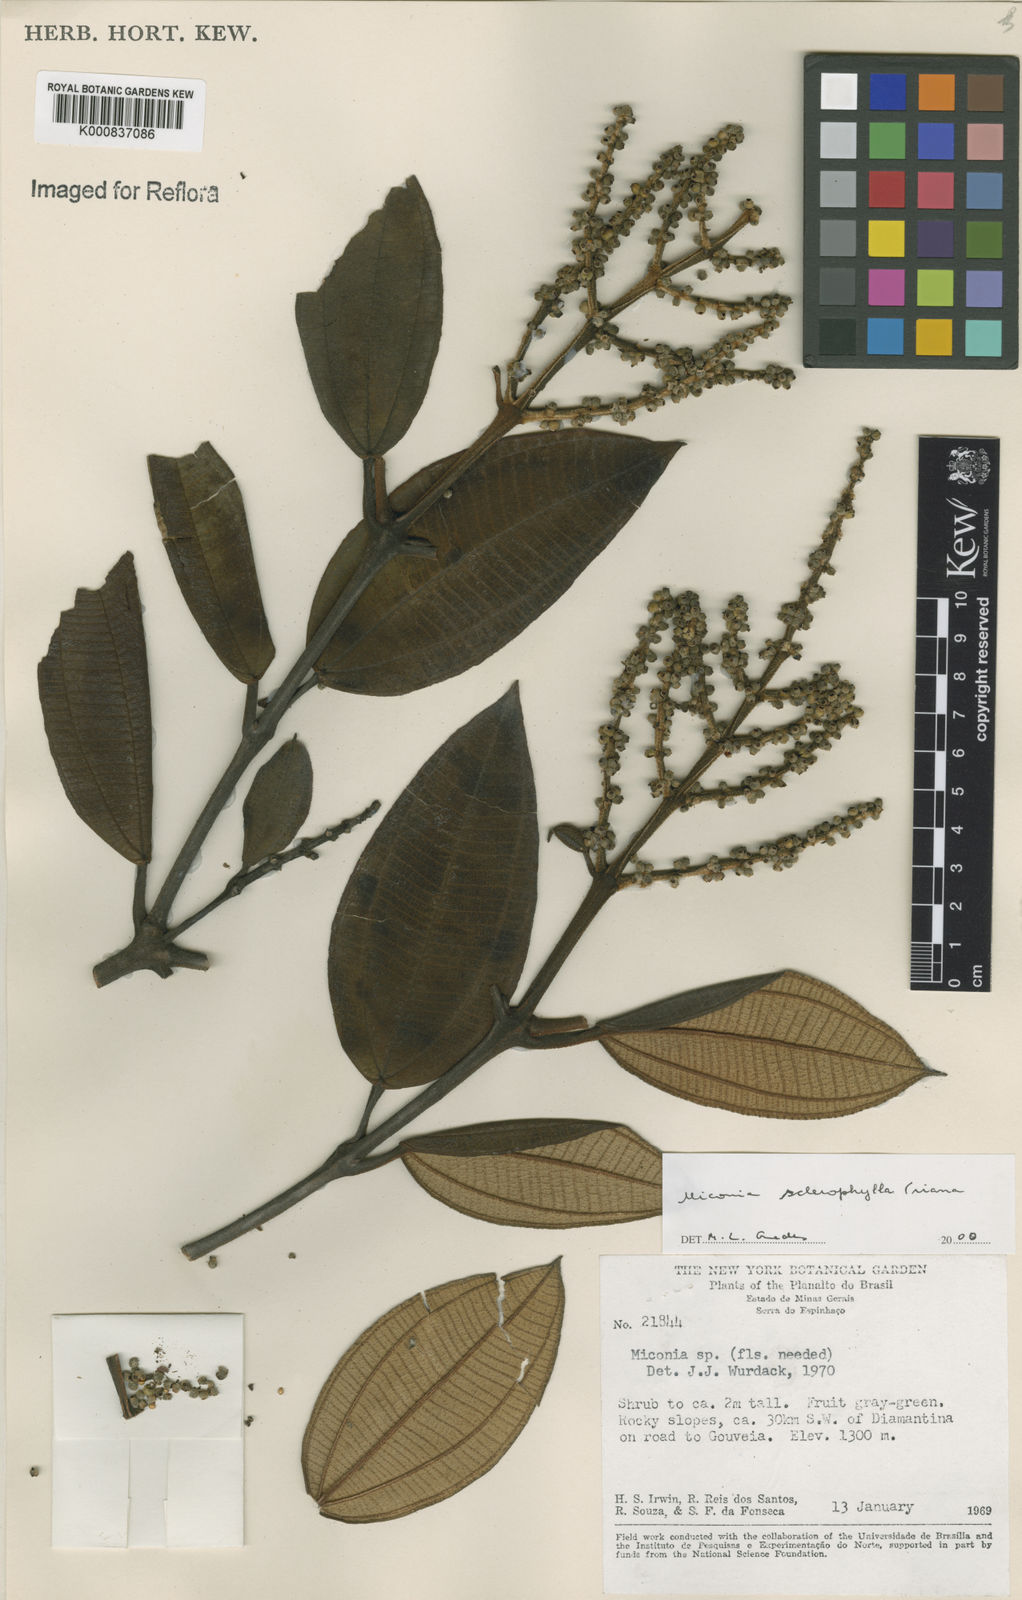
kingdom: Plantae
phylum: Tracheophyta
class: Magnoliopsida
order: Myrtales
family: Melastomataceae
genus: Miconia
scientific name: Miconia sclerophylla
